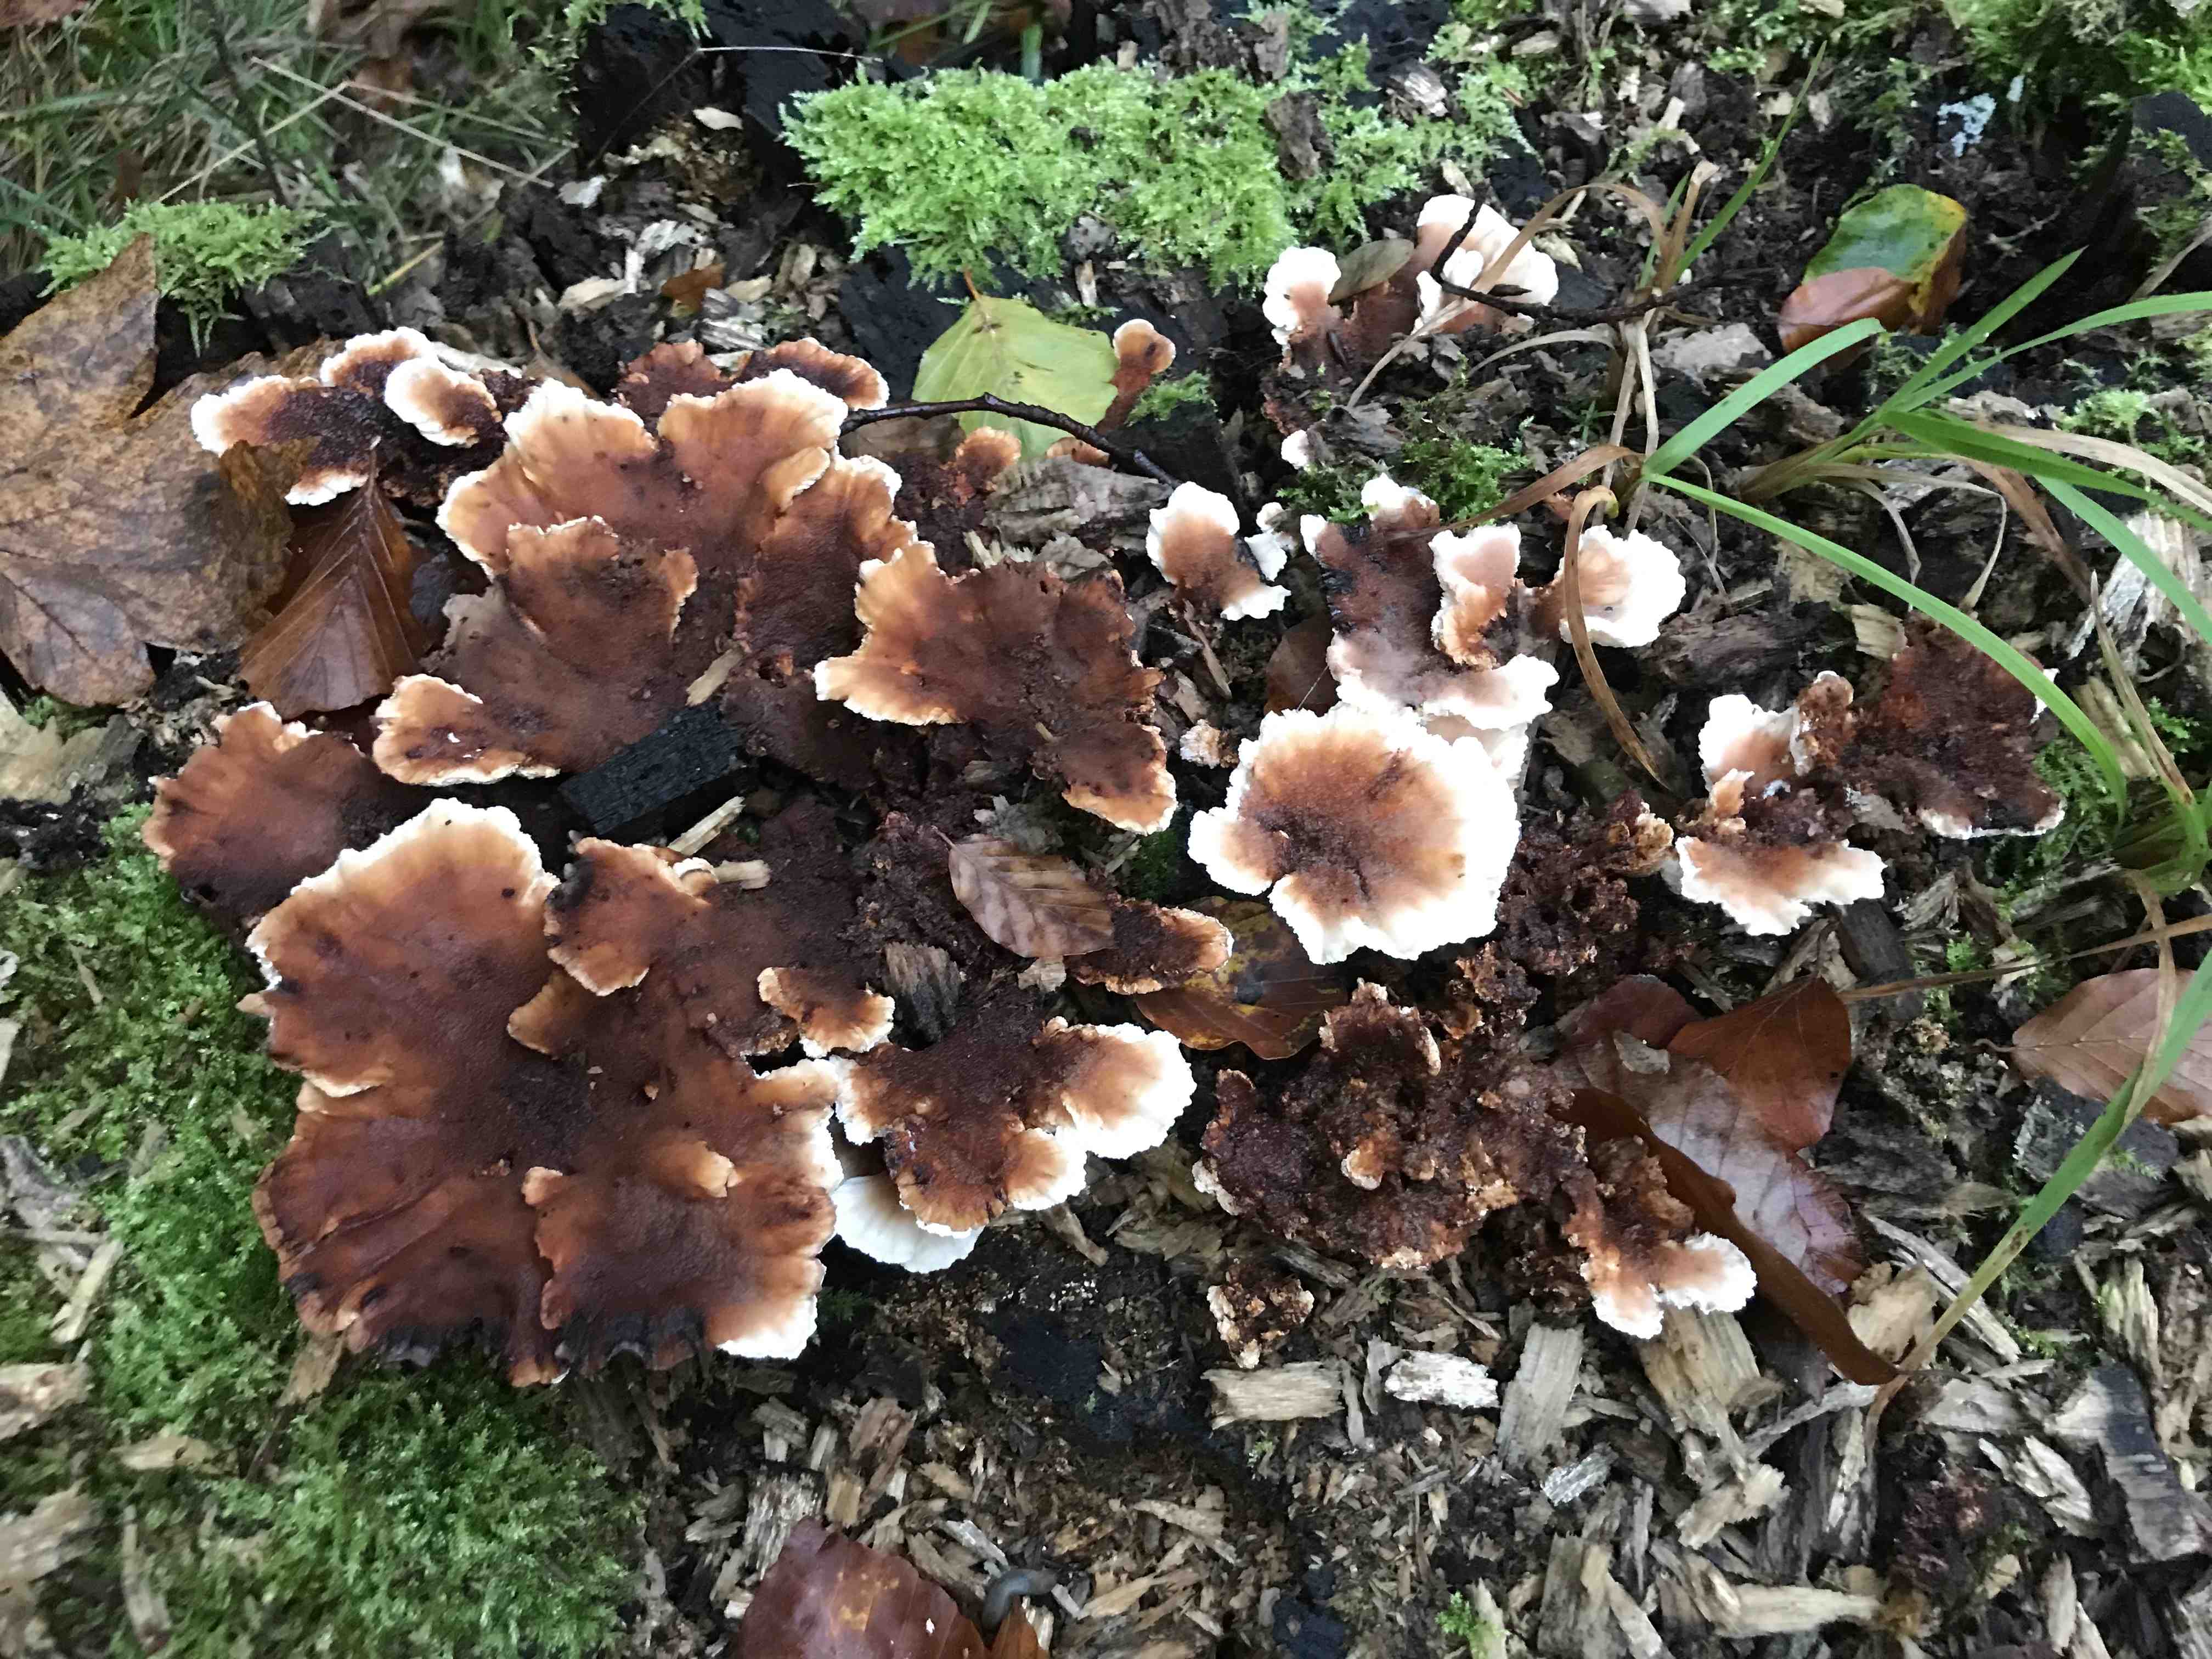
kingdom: Fungi
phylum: Basidiomycota
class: Agaricomycetes
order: Polyporales
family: Podoscyphaceae
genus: Abortiporus
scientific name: Abortiporus biennis
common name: rødmende pjalteporesvamp
